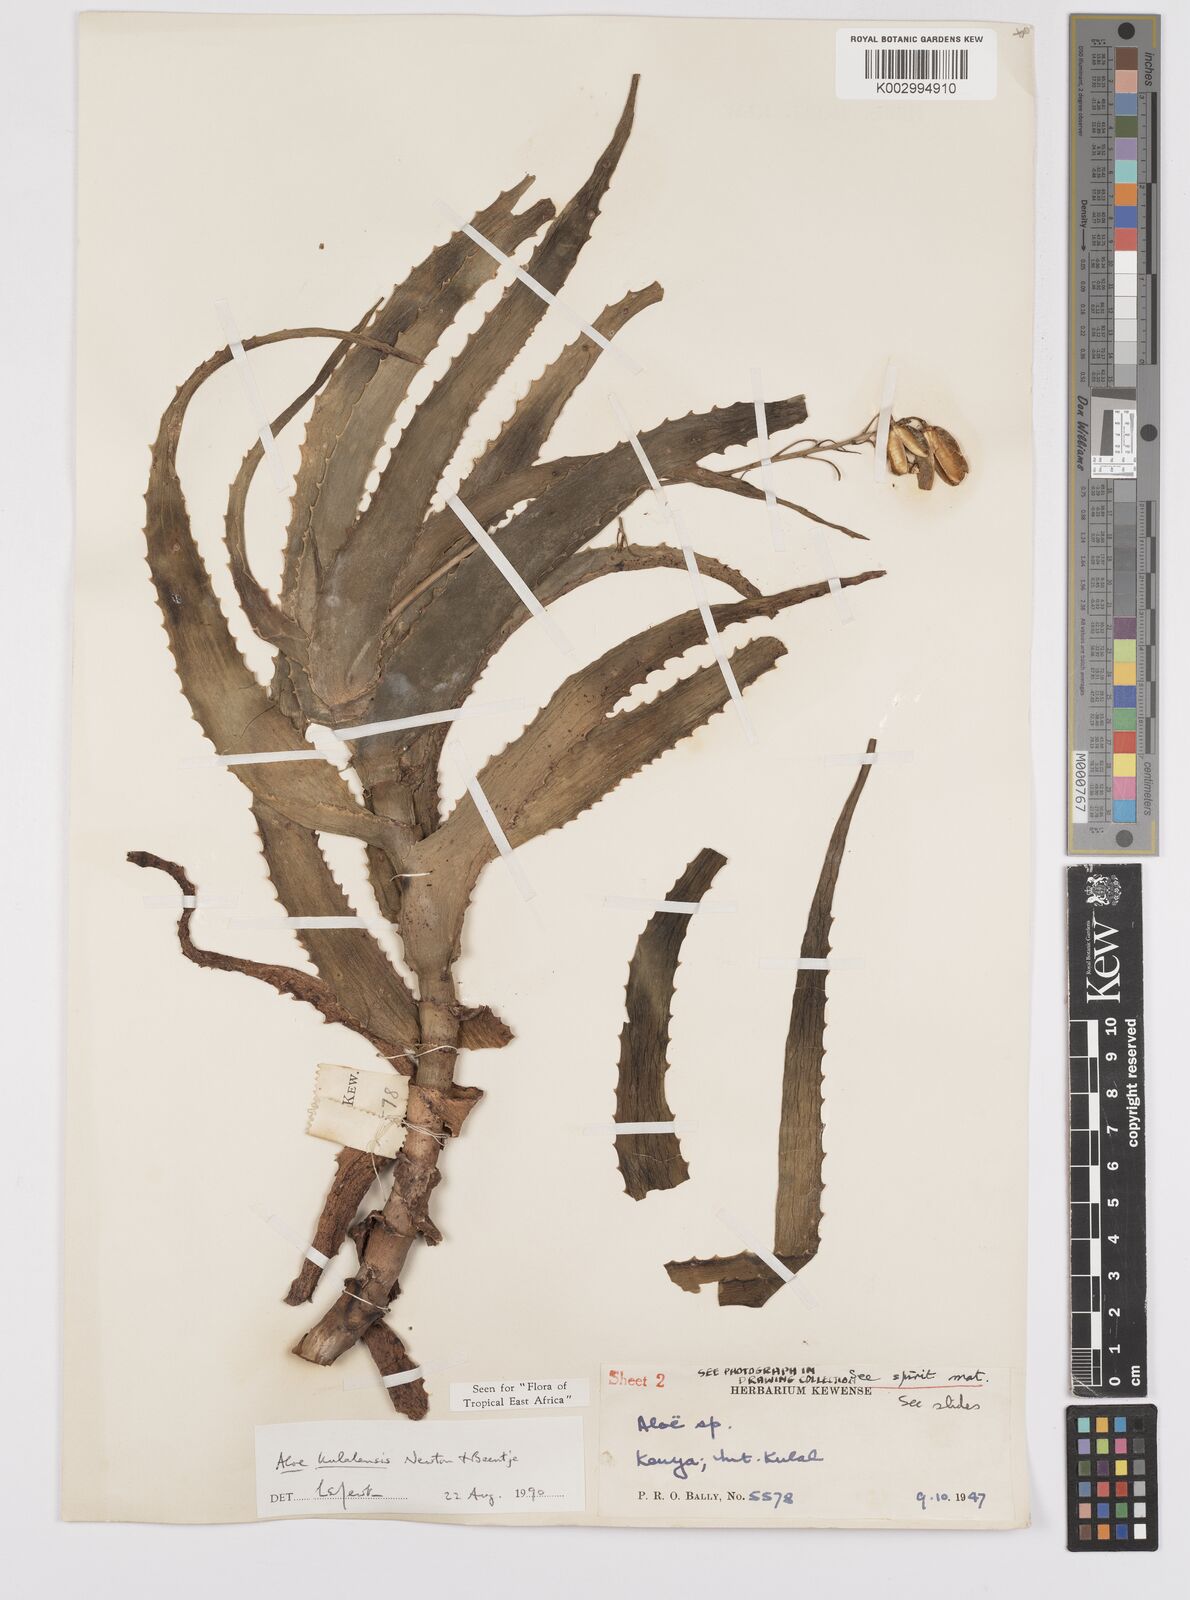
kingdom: Plantae
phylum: Tracheophyta
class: Liliopsida
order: Asparagales
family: Asphodelaceae
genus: Aloe
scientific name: Aloe kulalensis
